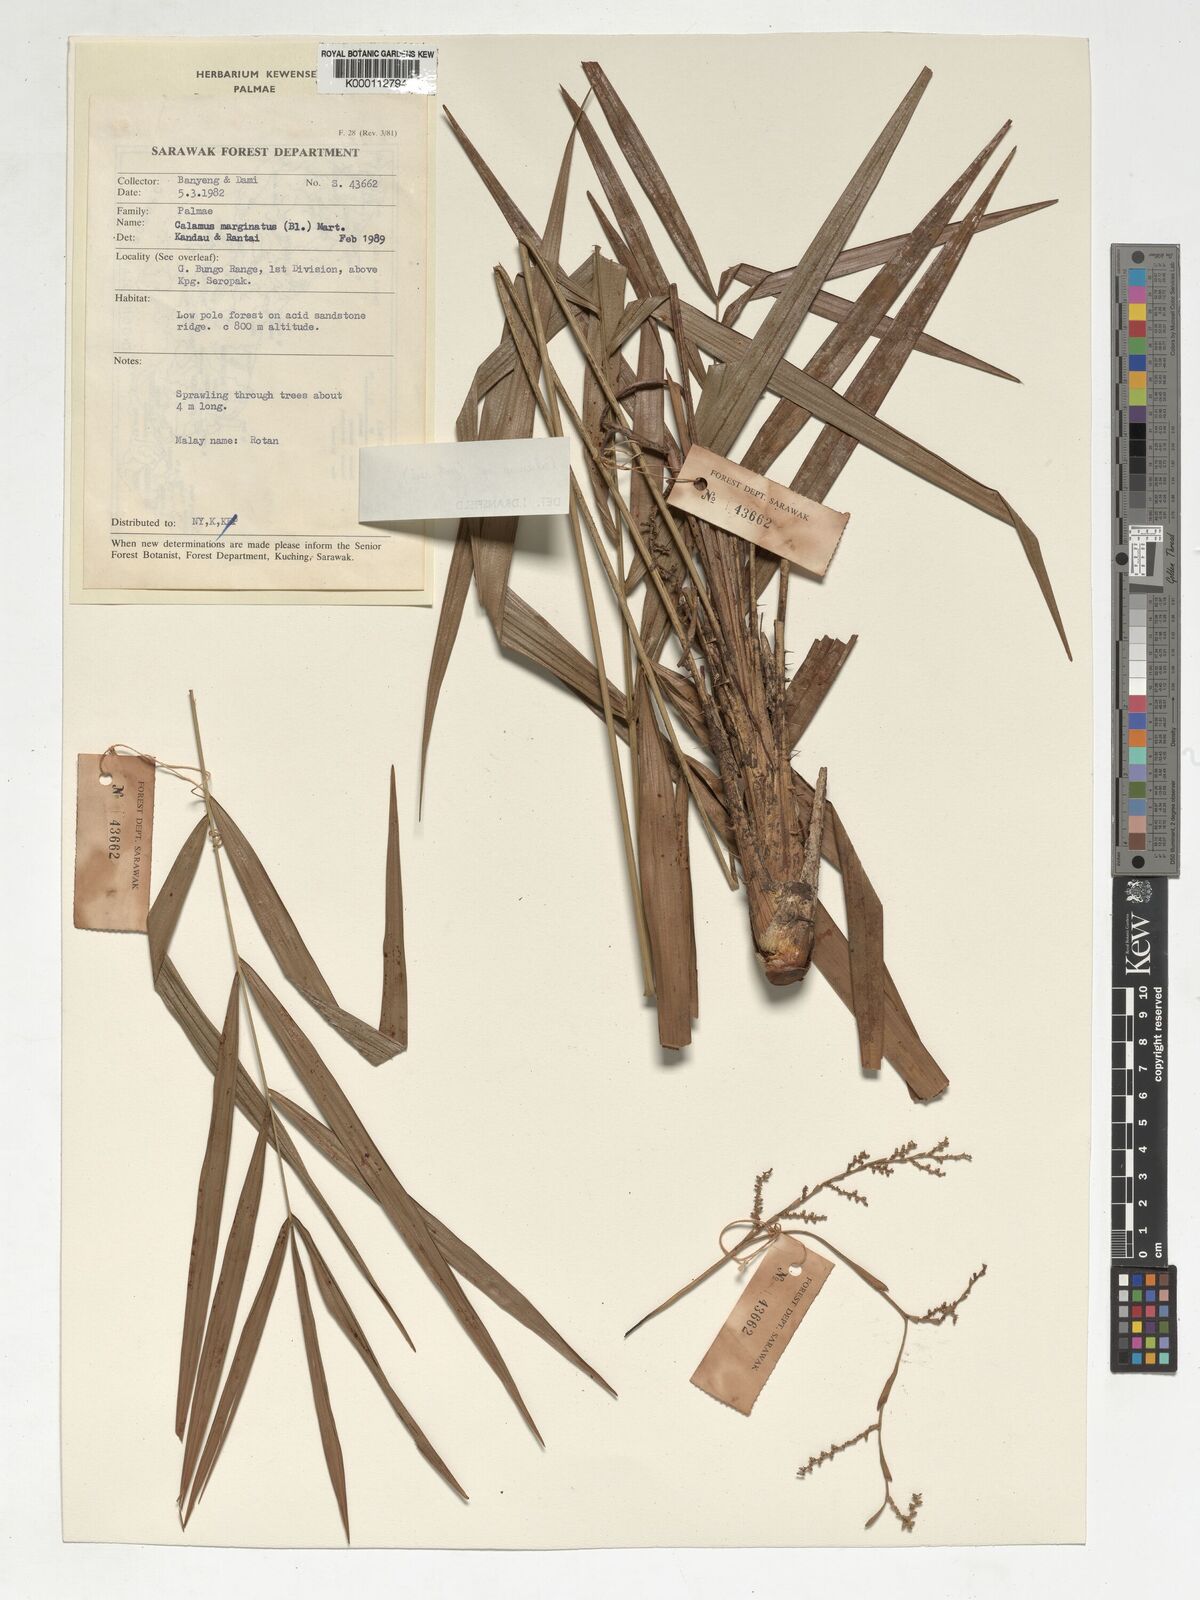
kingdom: Plantae
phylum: Tracheophyta
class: Liliopsida
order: Arecales
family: Arecaceae
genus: Calamus
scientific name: Calamus
